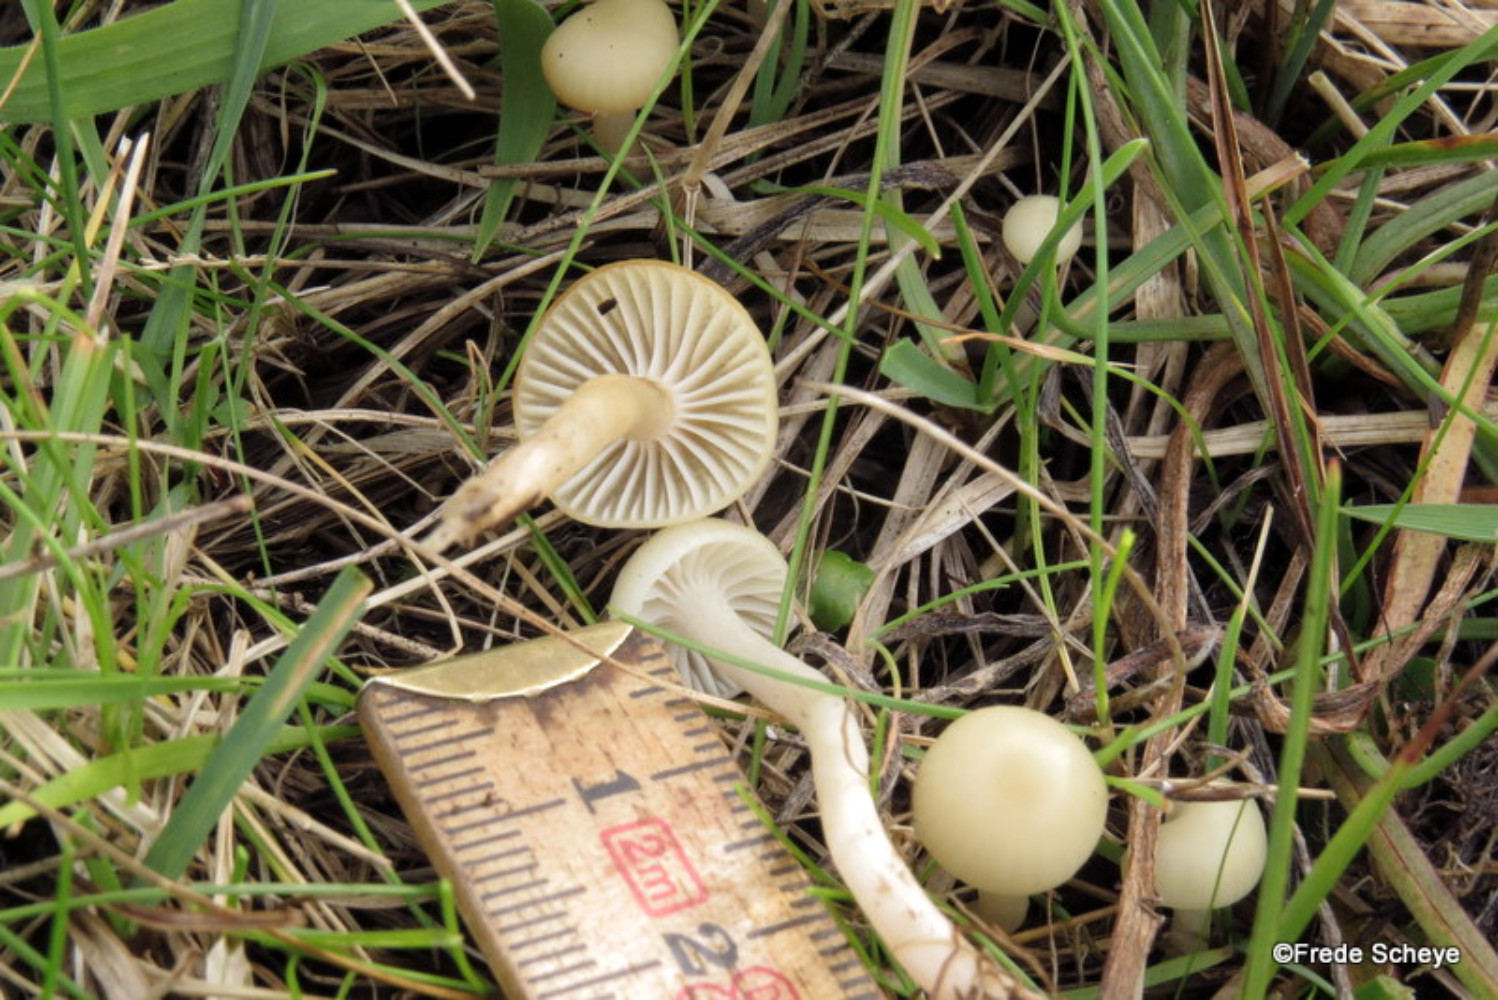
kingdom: Fungi
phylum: Basidiomycota
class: Agaricomycetes
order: Agaricales
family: Hygrophoraceae
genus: Cuphophyllus
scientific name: Cuphophyllus russocoriaceus
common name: ruslæder-vokshat
